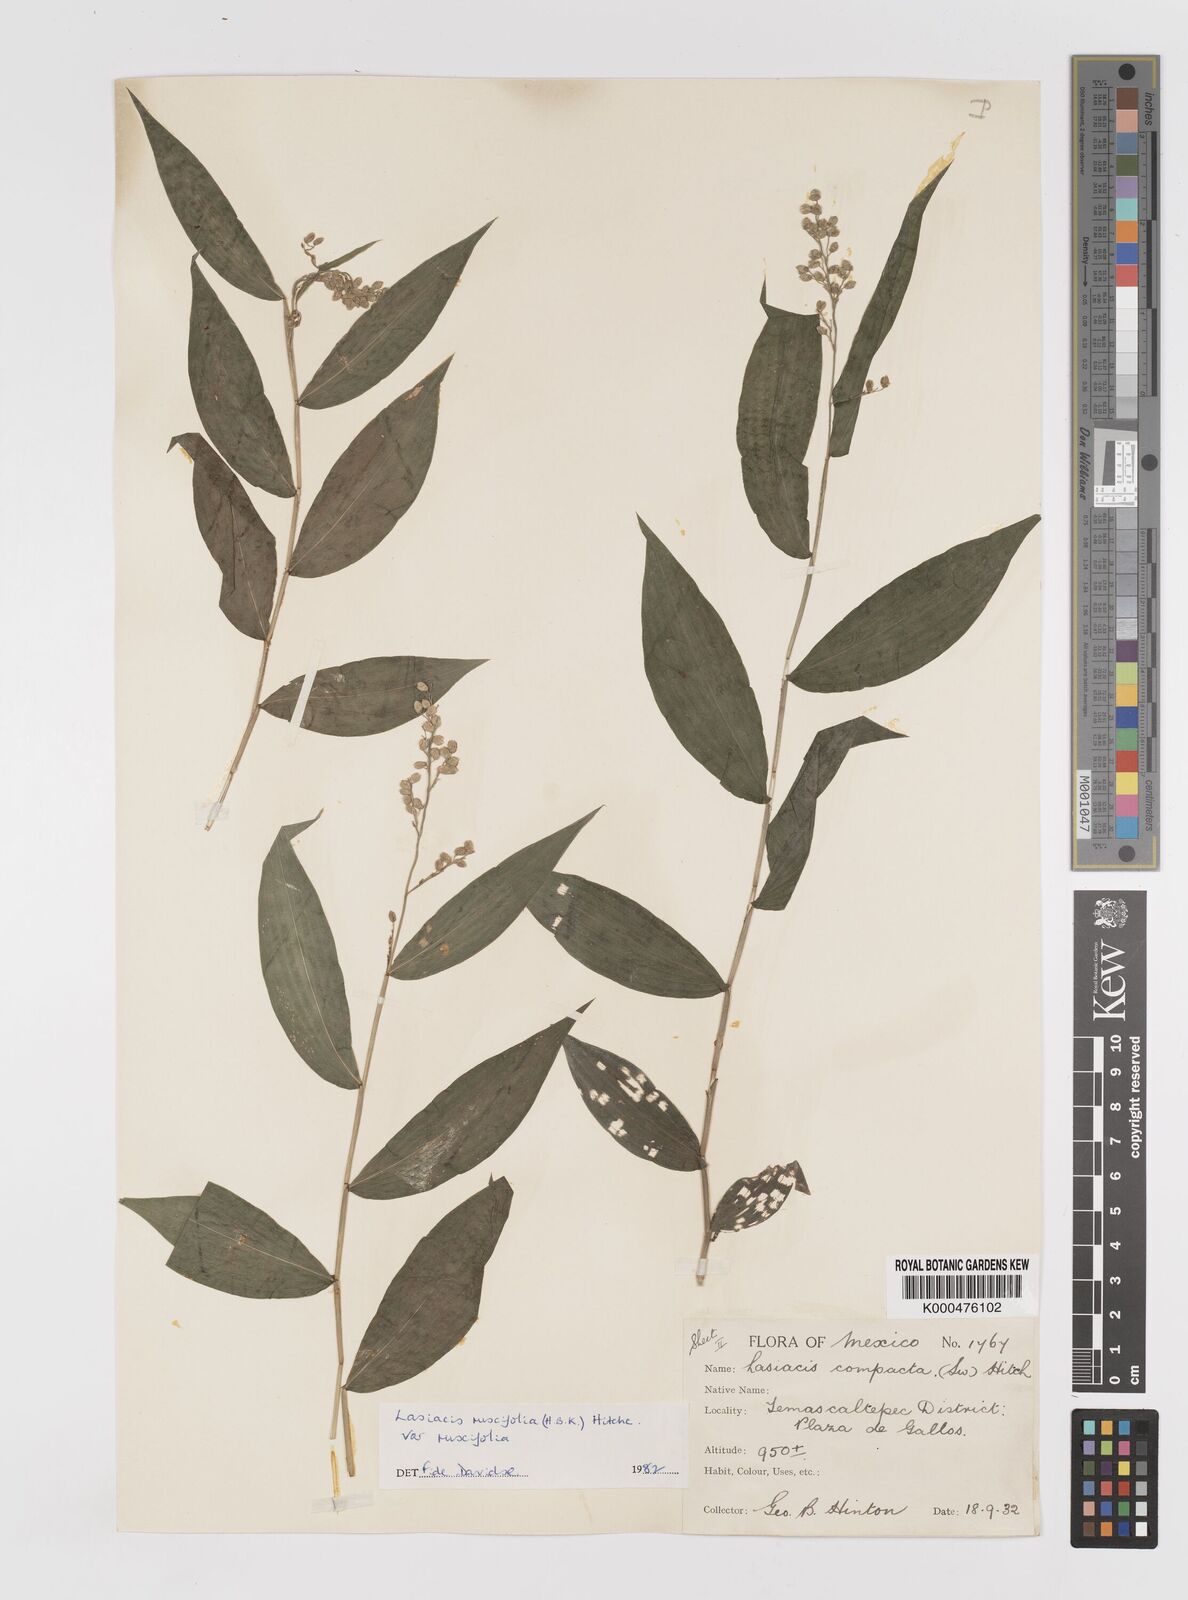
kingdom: Plantae
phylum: Tracheophyta
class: Liliopsida
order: Poales
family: Poaceae
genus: Lasiacis
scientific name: Lasiacis ruscifolia
